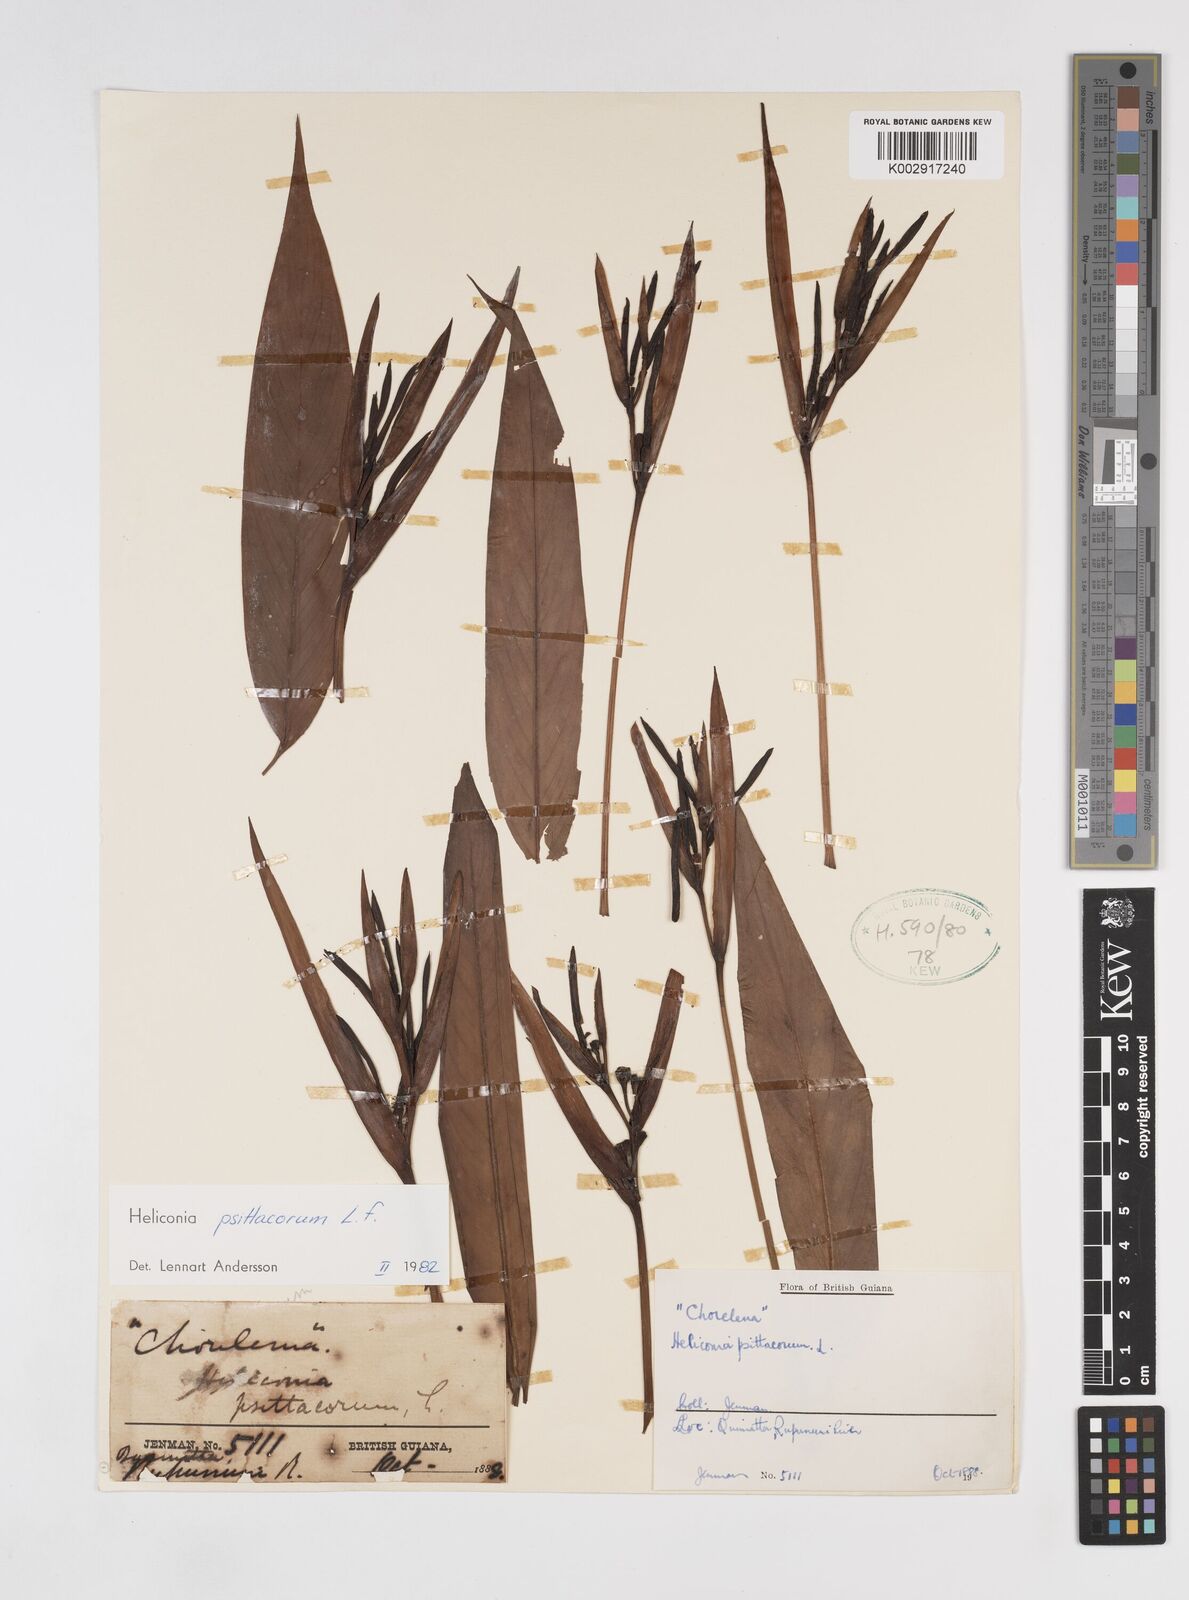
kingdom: Plantae
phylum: Tracheophyta
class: Liliopsida
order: Zingiberales
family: Heliconiaceae
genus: Heliconia
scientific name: Heliconia psittacorum
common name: Parrot's-flower
